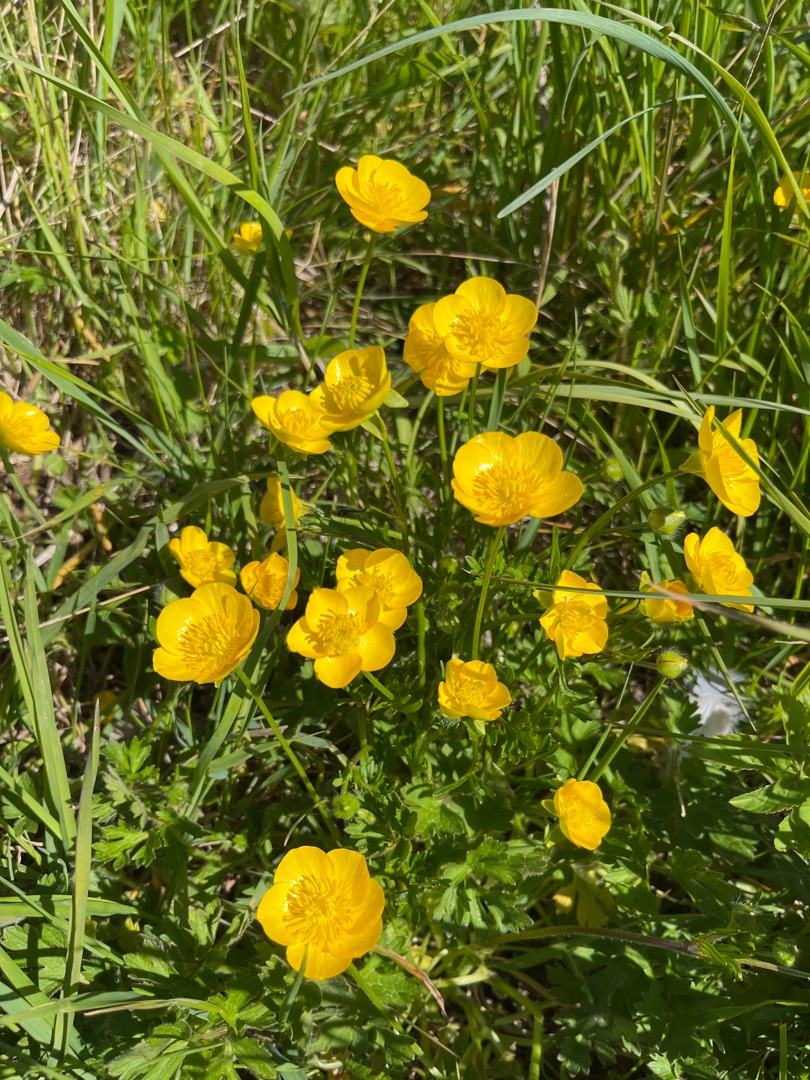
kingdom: Plantae
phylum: Tracheophyta
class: Magnoliopsida
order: Ranunculales
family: Ranunculaceae
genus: Ranunculus
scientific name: Ranunculus bulbosus
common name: Knold-ranunkel
